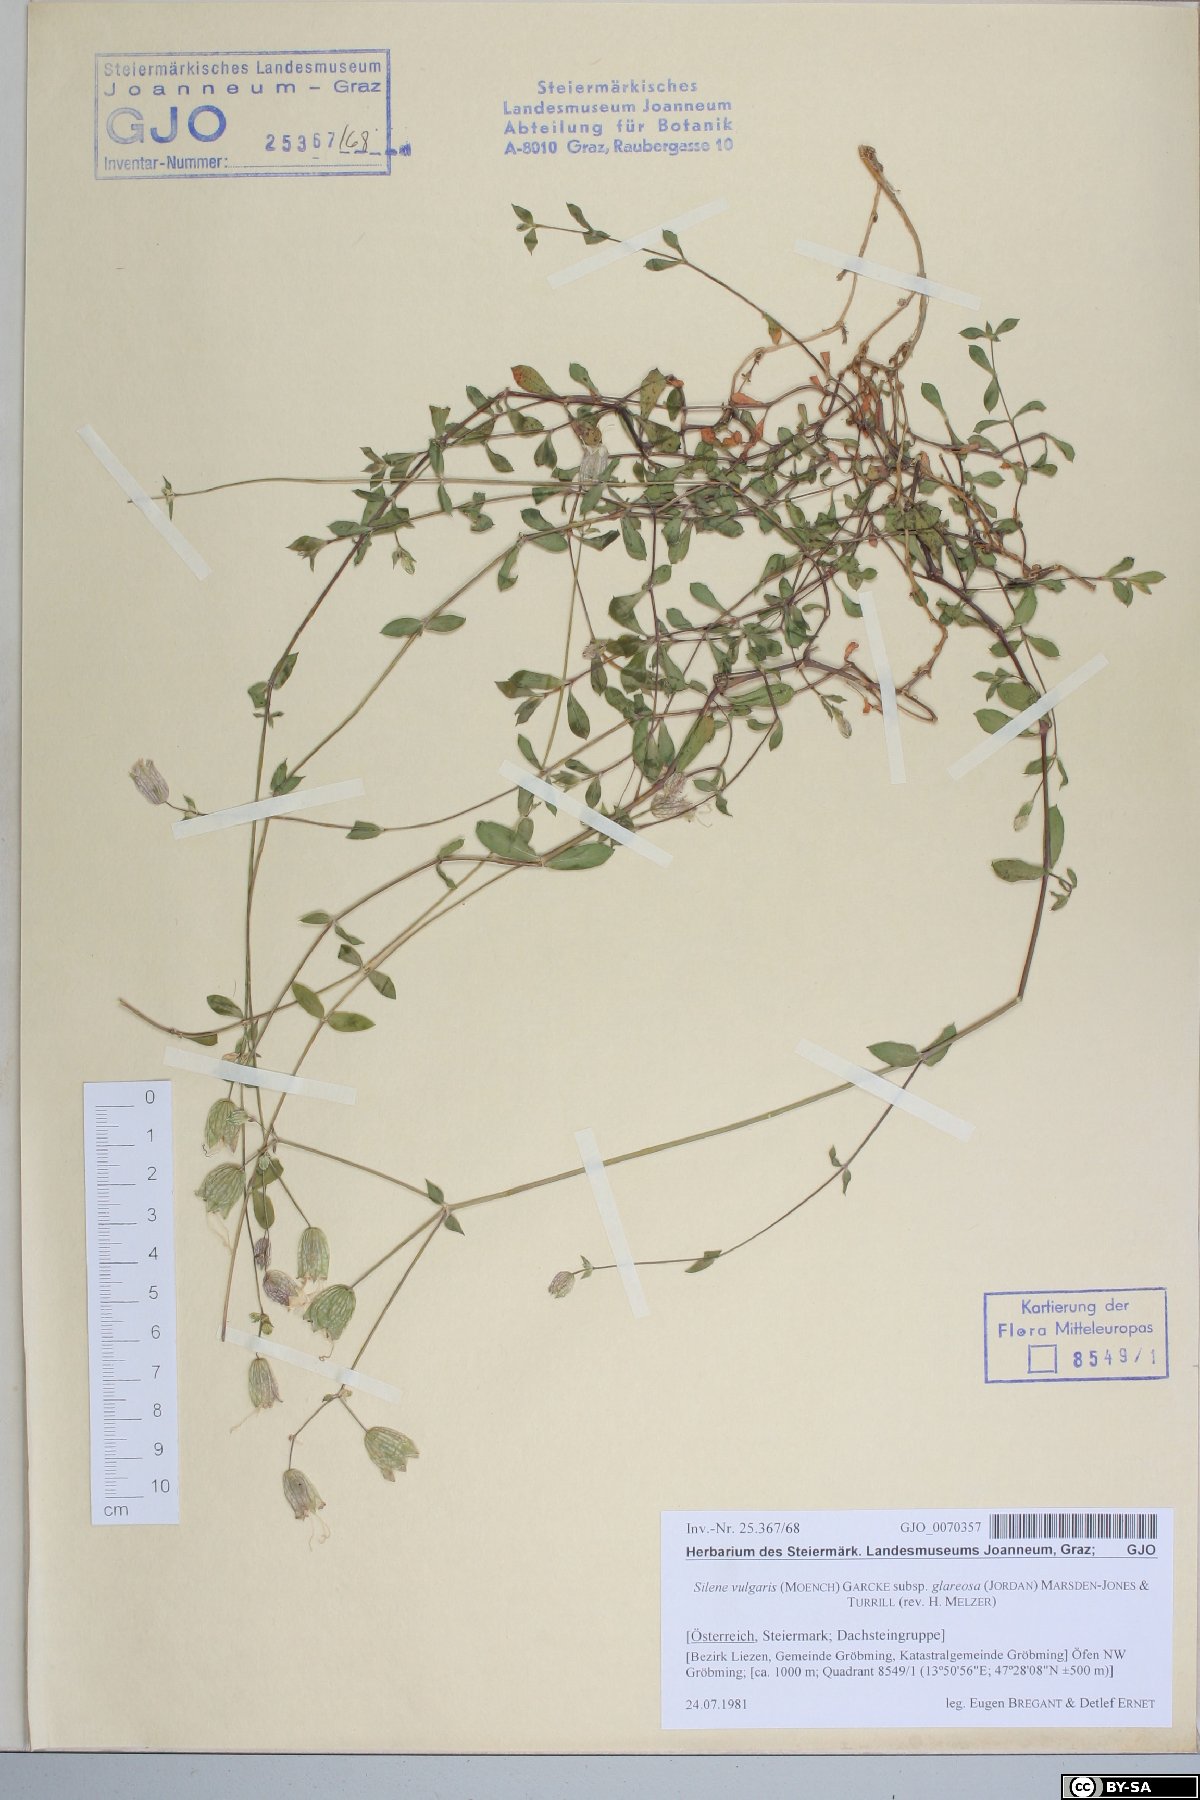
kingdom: Plantae
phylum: Tracheophyta
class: Magnoliopsida
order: Caryophyllales
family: Caryophyllaceae
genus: Silene
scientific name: Silene glareosa
